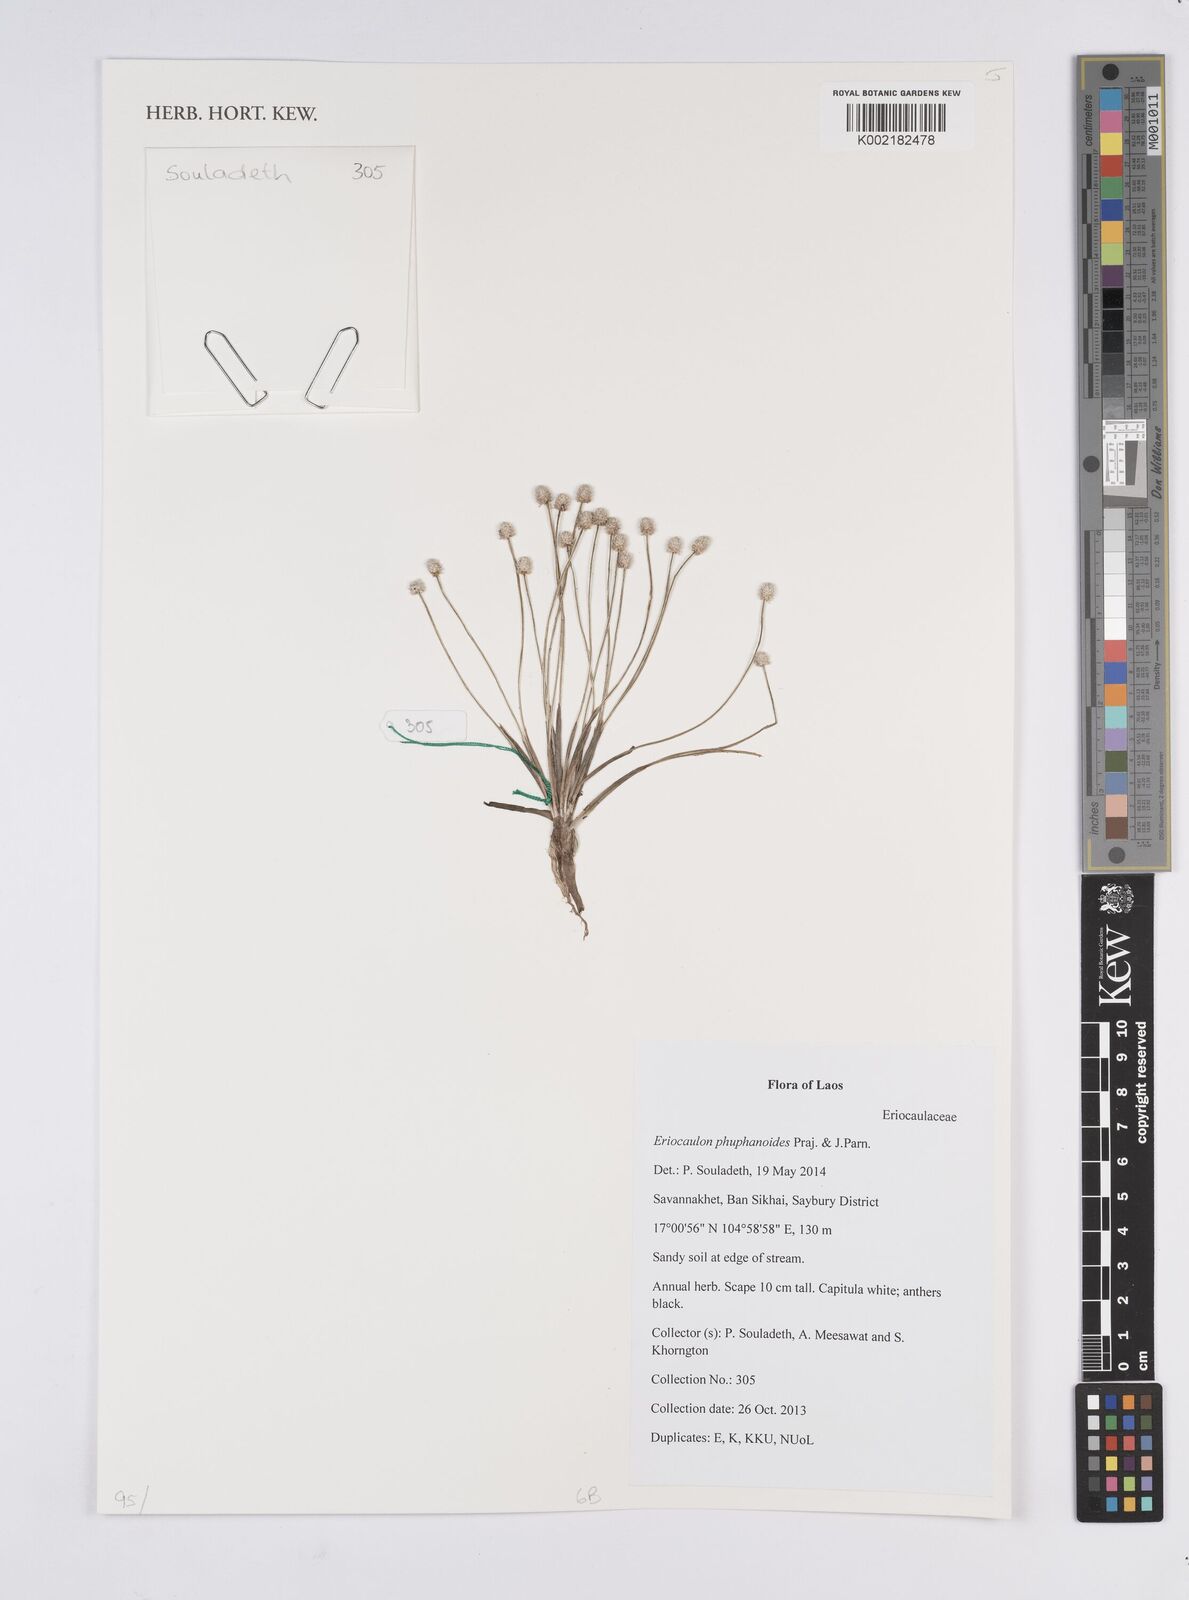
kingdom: Plantae
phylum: Tracheophyta
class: Liliopsida
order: Poales
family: Eriocaulaceae
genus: Eriocaulon
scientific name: Eriocaulon phuphanoides
